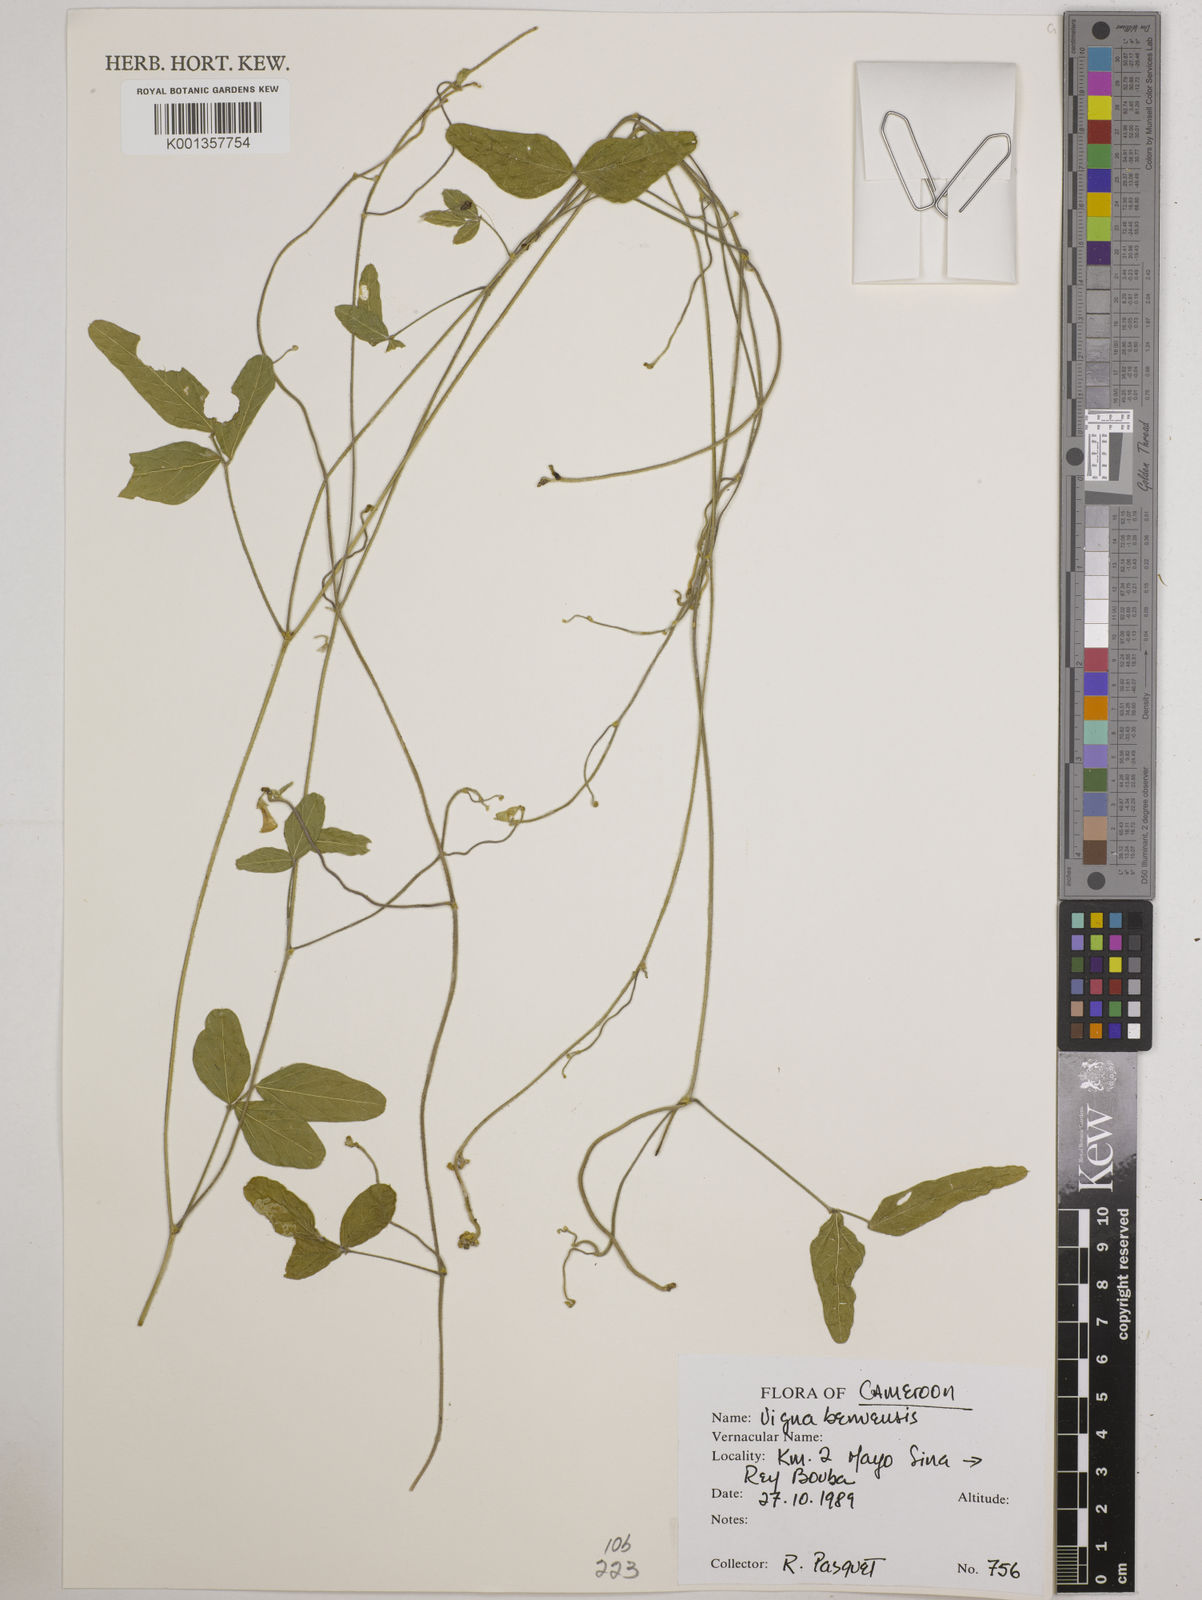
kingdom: Plantae
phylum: Tracheophyta
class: Magnoliopsida
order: Fabales
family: Fabaceae
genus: Vigna
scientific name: Vigna pubigera
